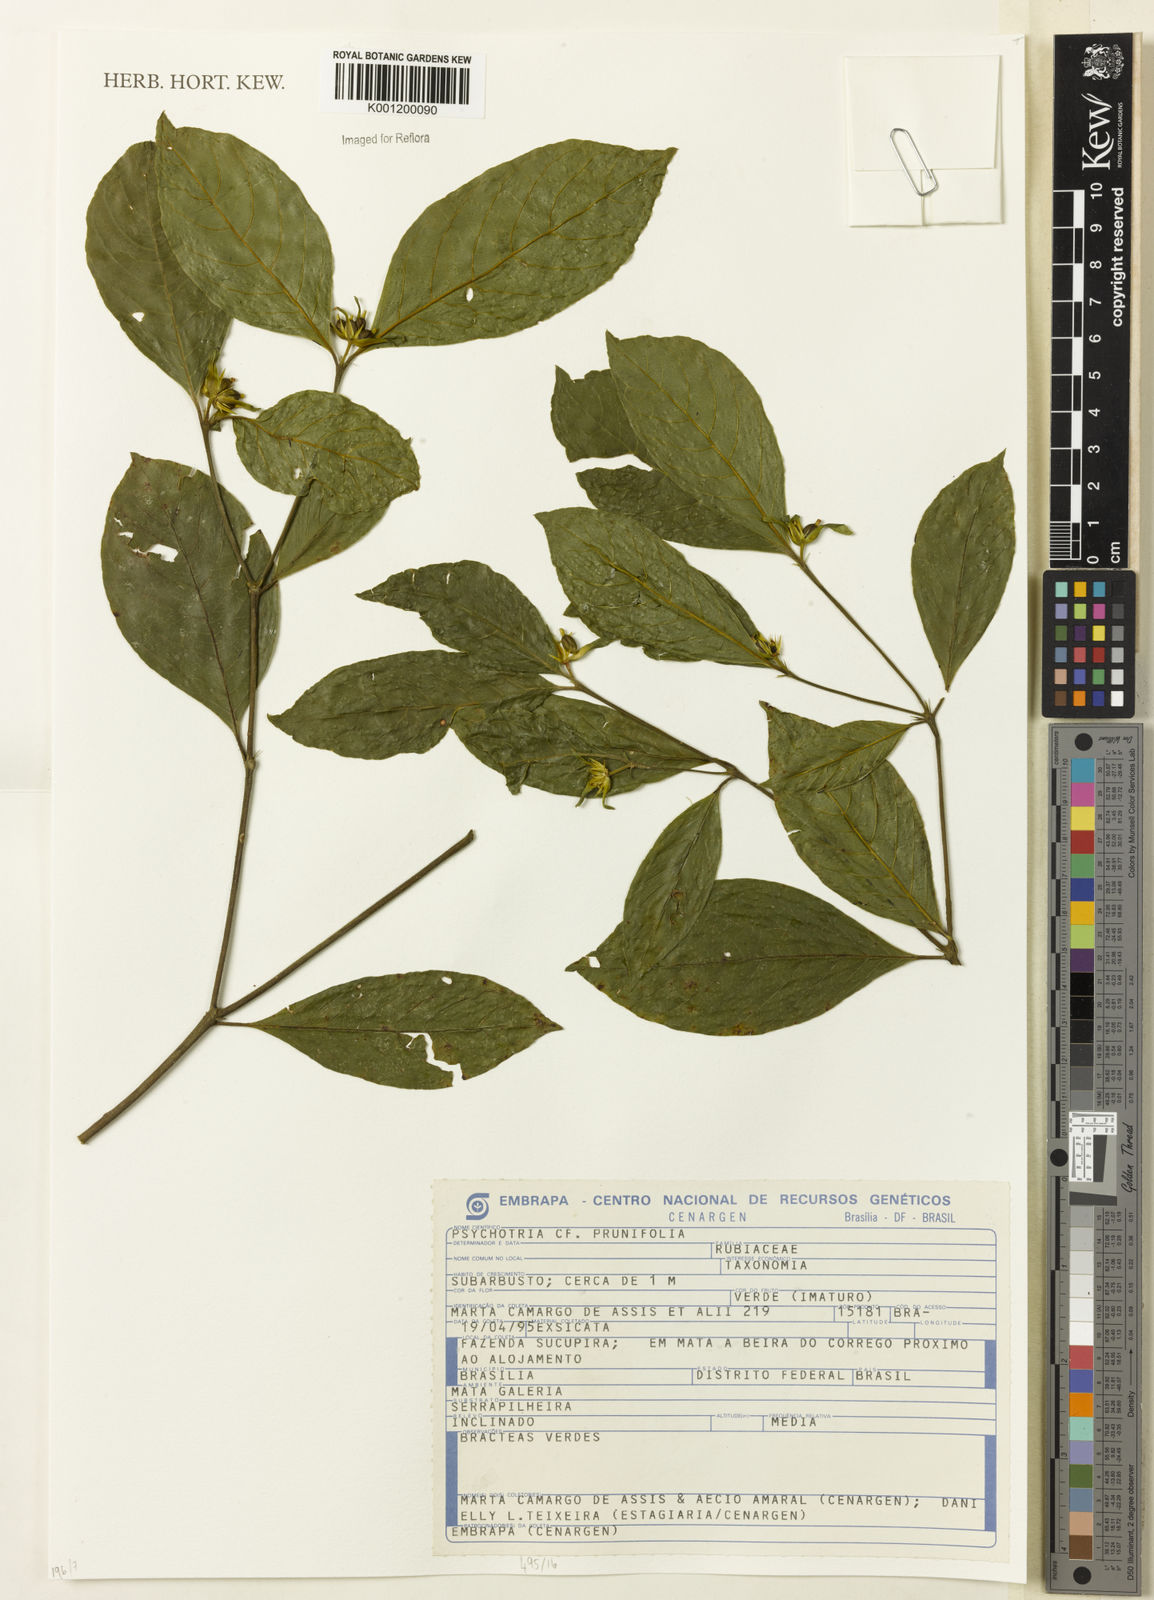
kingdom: Plantae
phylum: Tracheophyta
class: Magnoliopsida
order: Gentianales
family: Rubiaceae
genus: Palicourea
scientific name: Palicourea prunifolia
